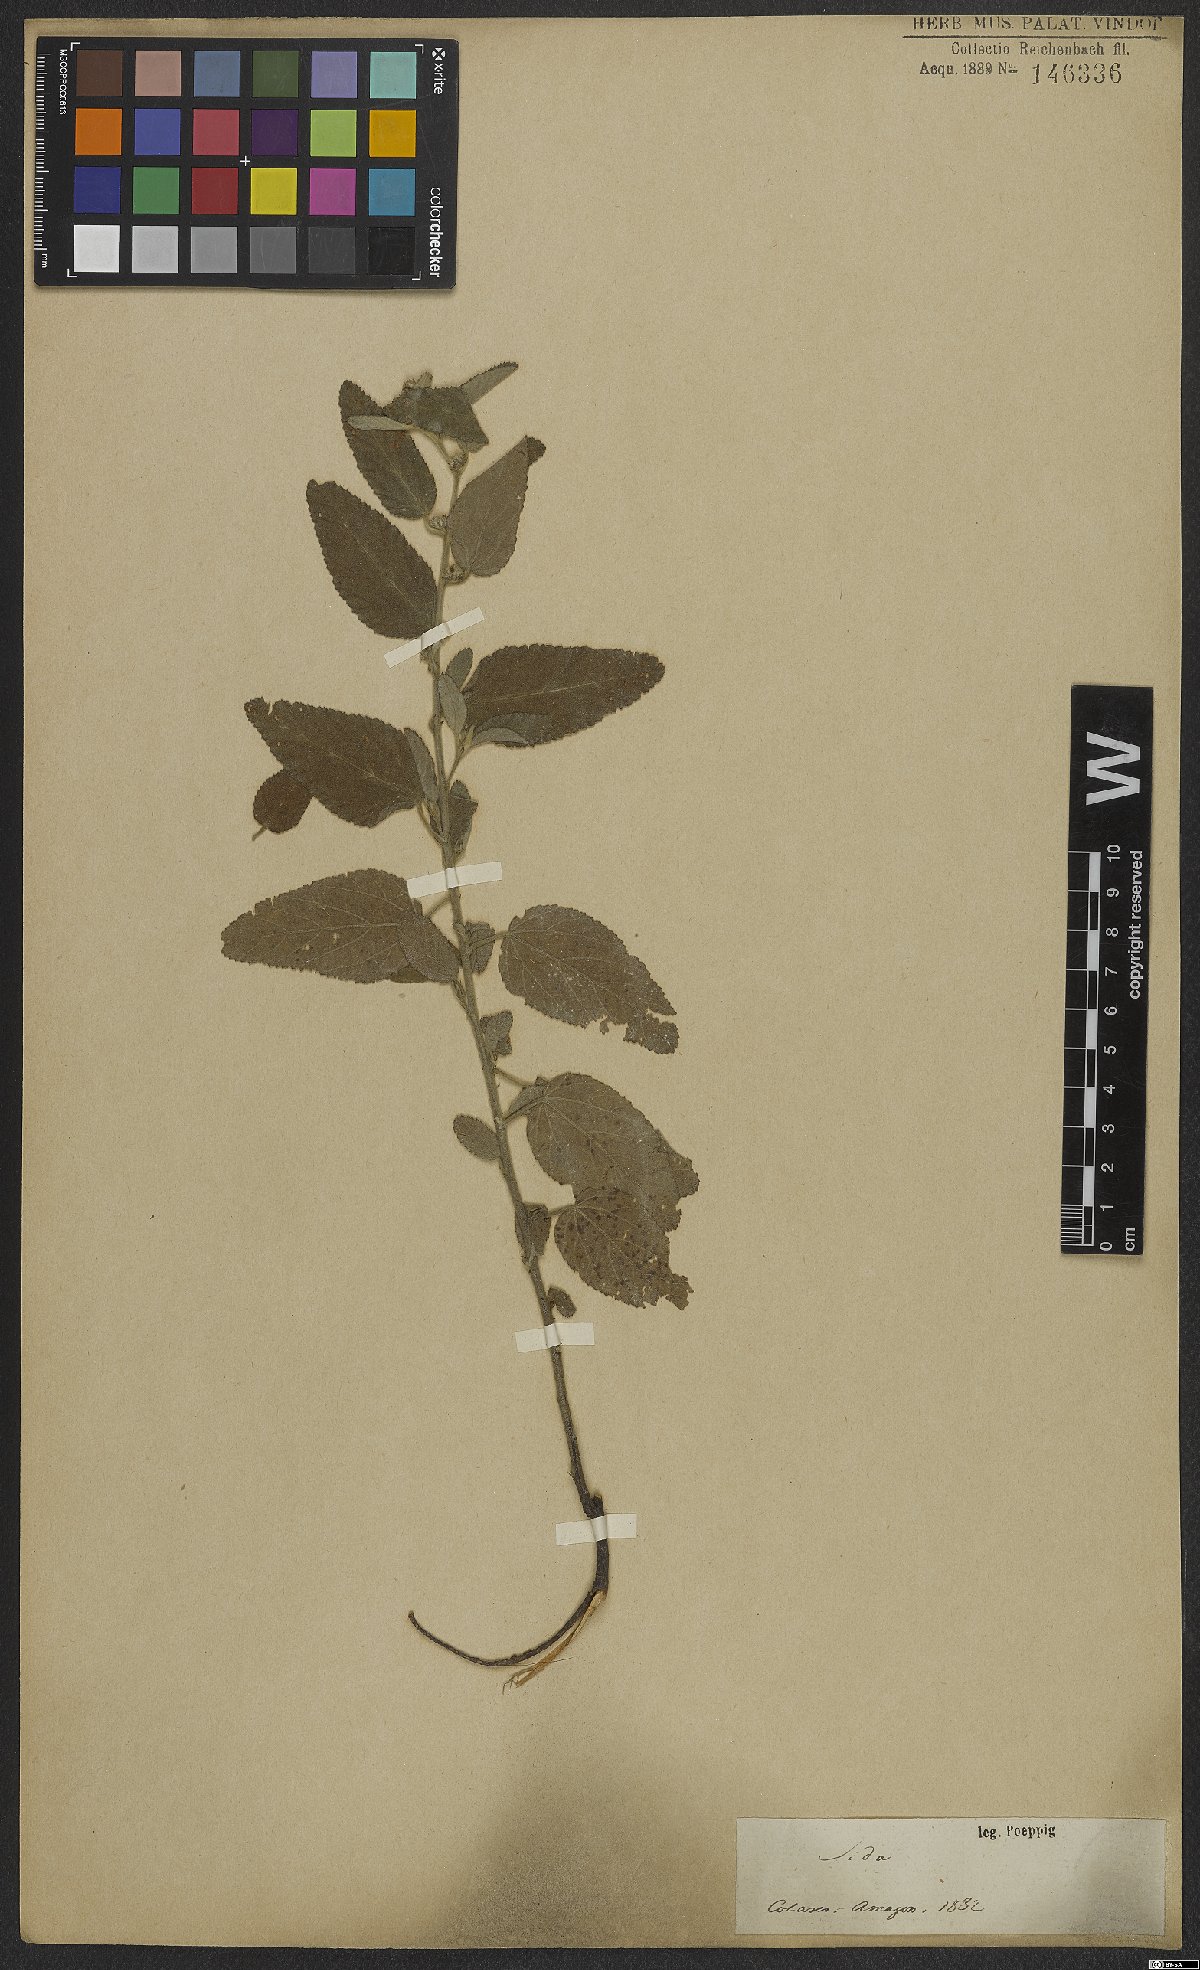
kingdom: Plantae
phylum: Tracheophyta
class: Magnoliopsida
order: Malvales
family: Malvaceae
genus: Sida
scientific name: Sida
